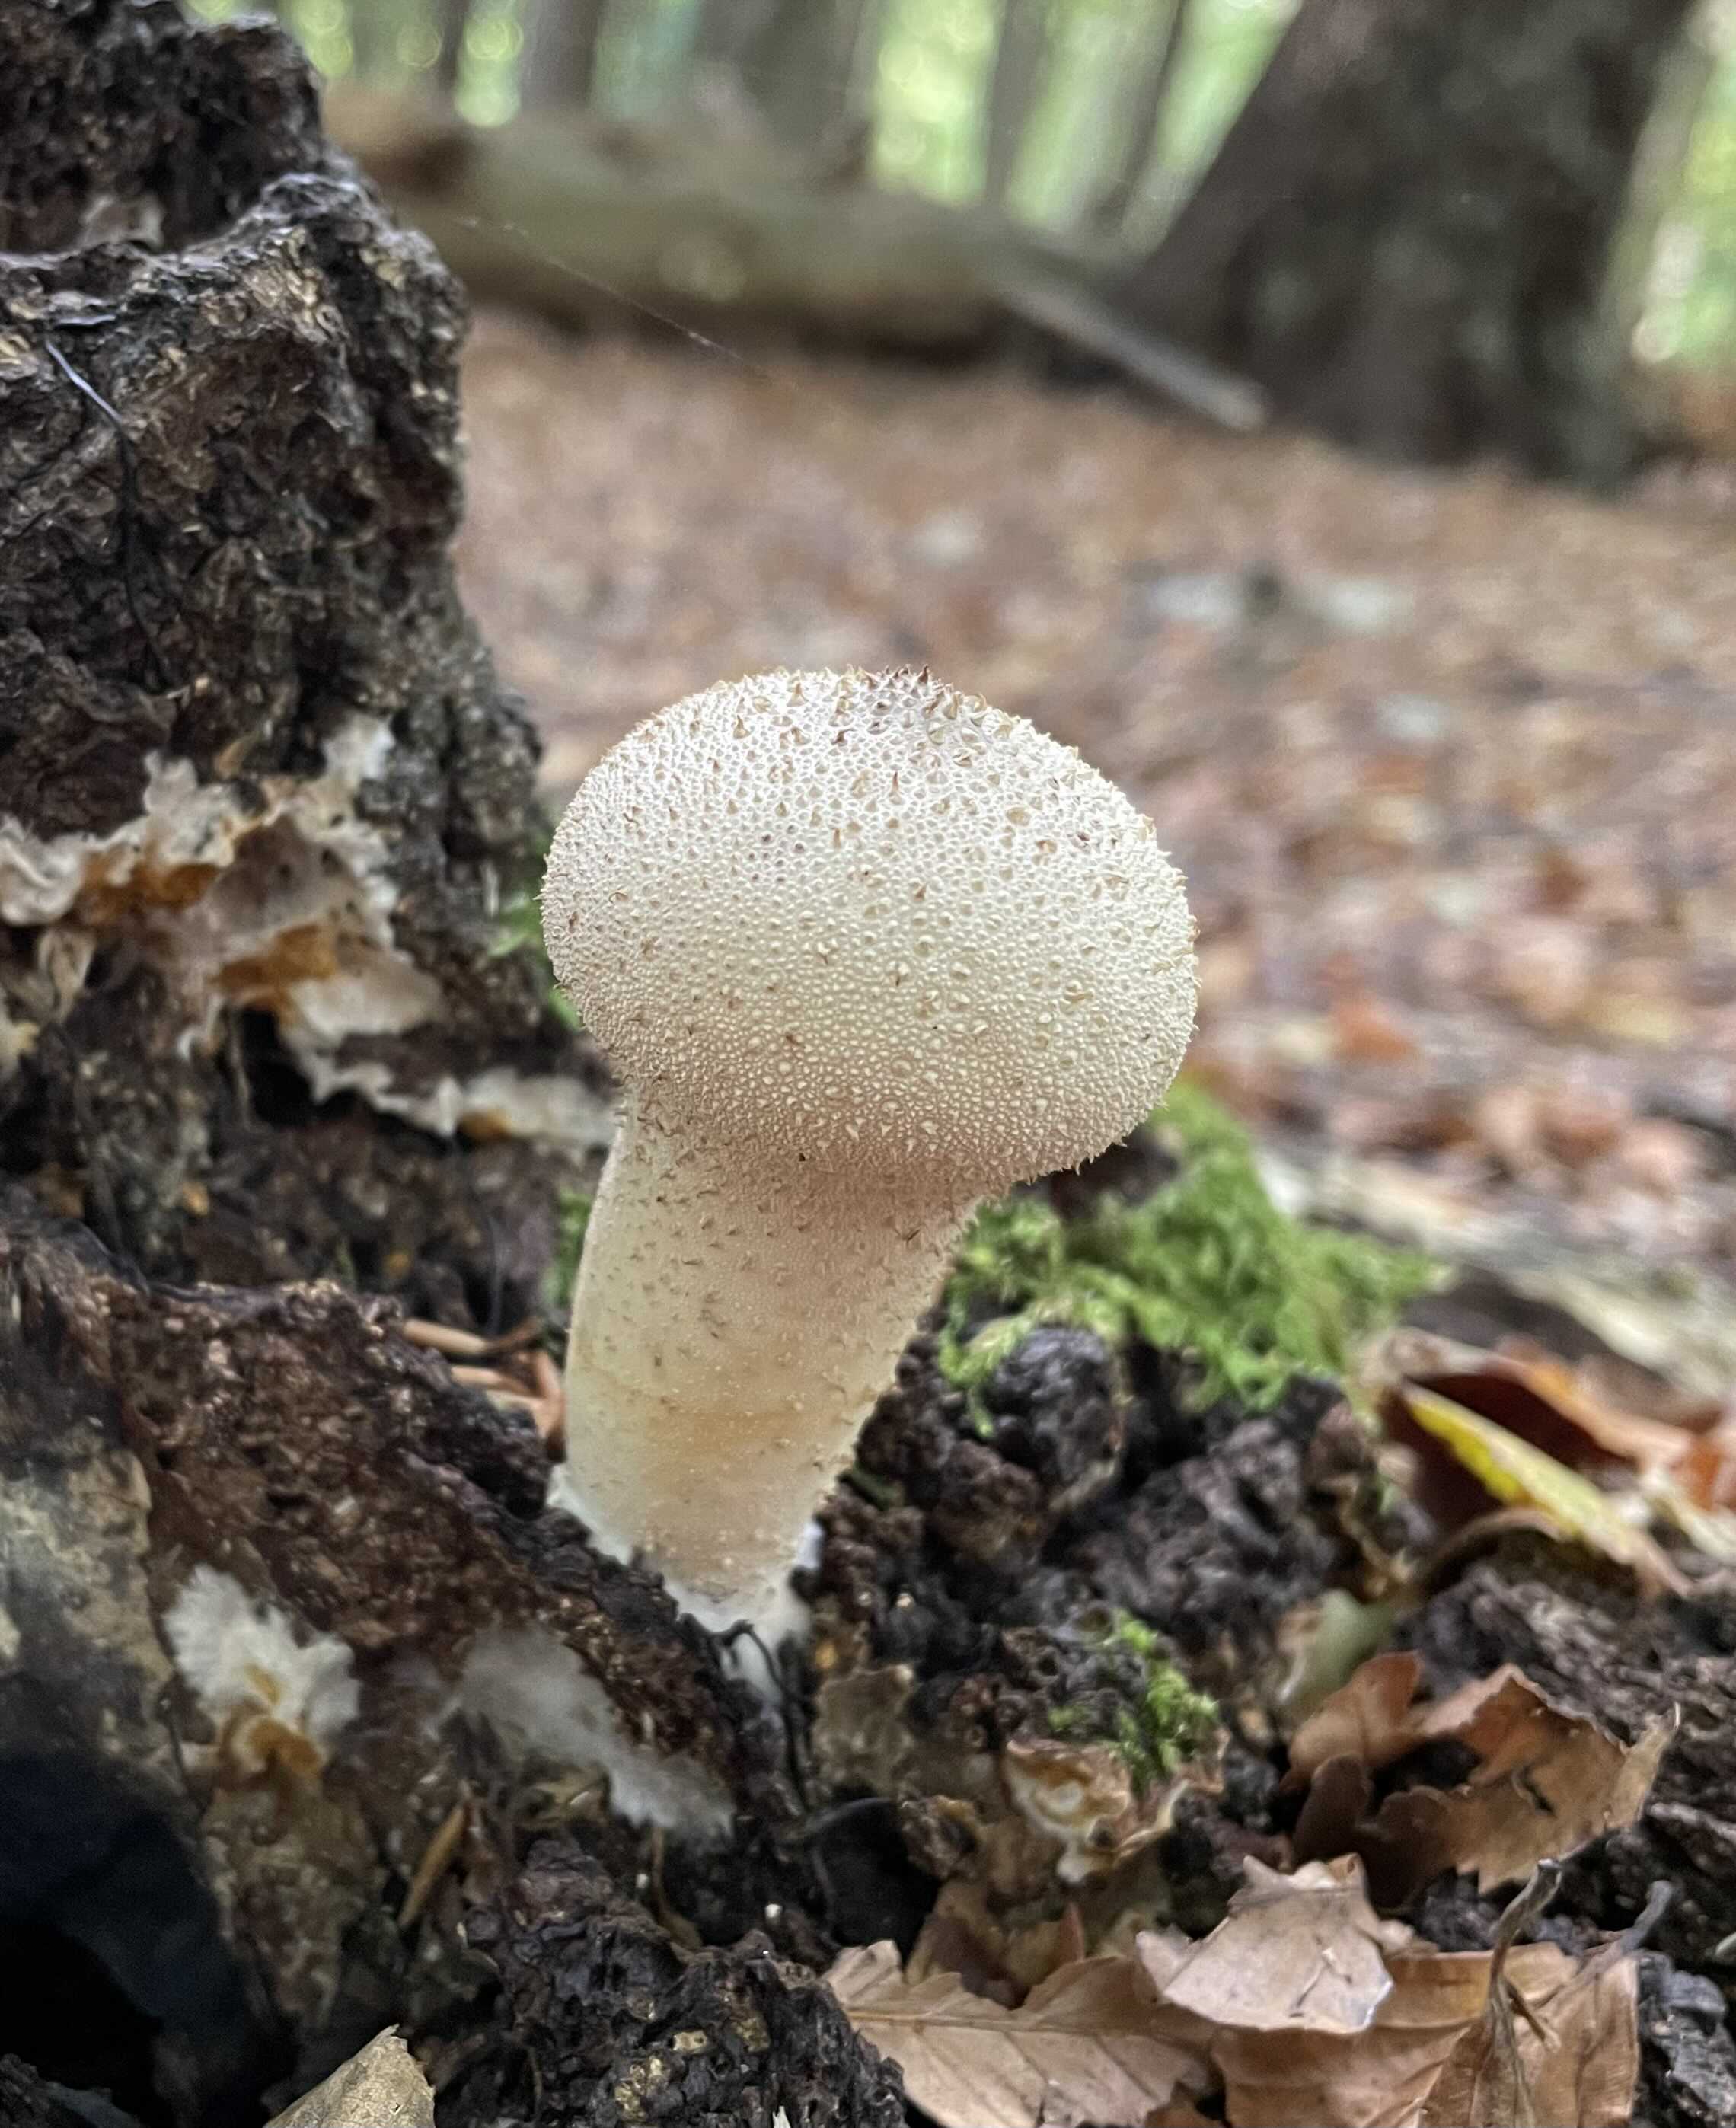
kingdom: Fungi
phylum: Basidiomycota
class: Agaricomycetes
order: Agaricales
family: Lycoperdaceae
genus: Lycoperdon
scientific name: Lycoperdon perlatum
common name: krystal-støvbold
